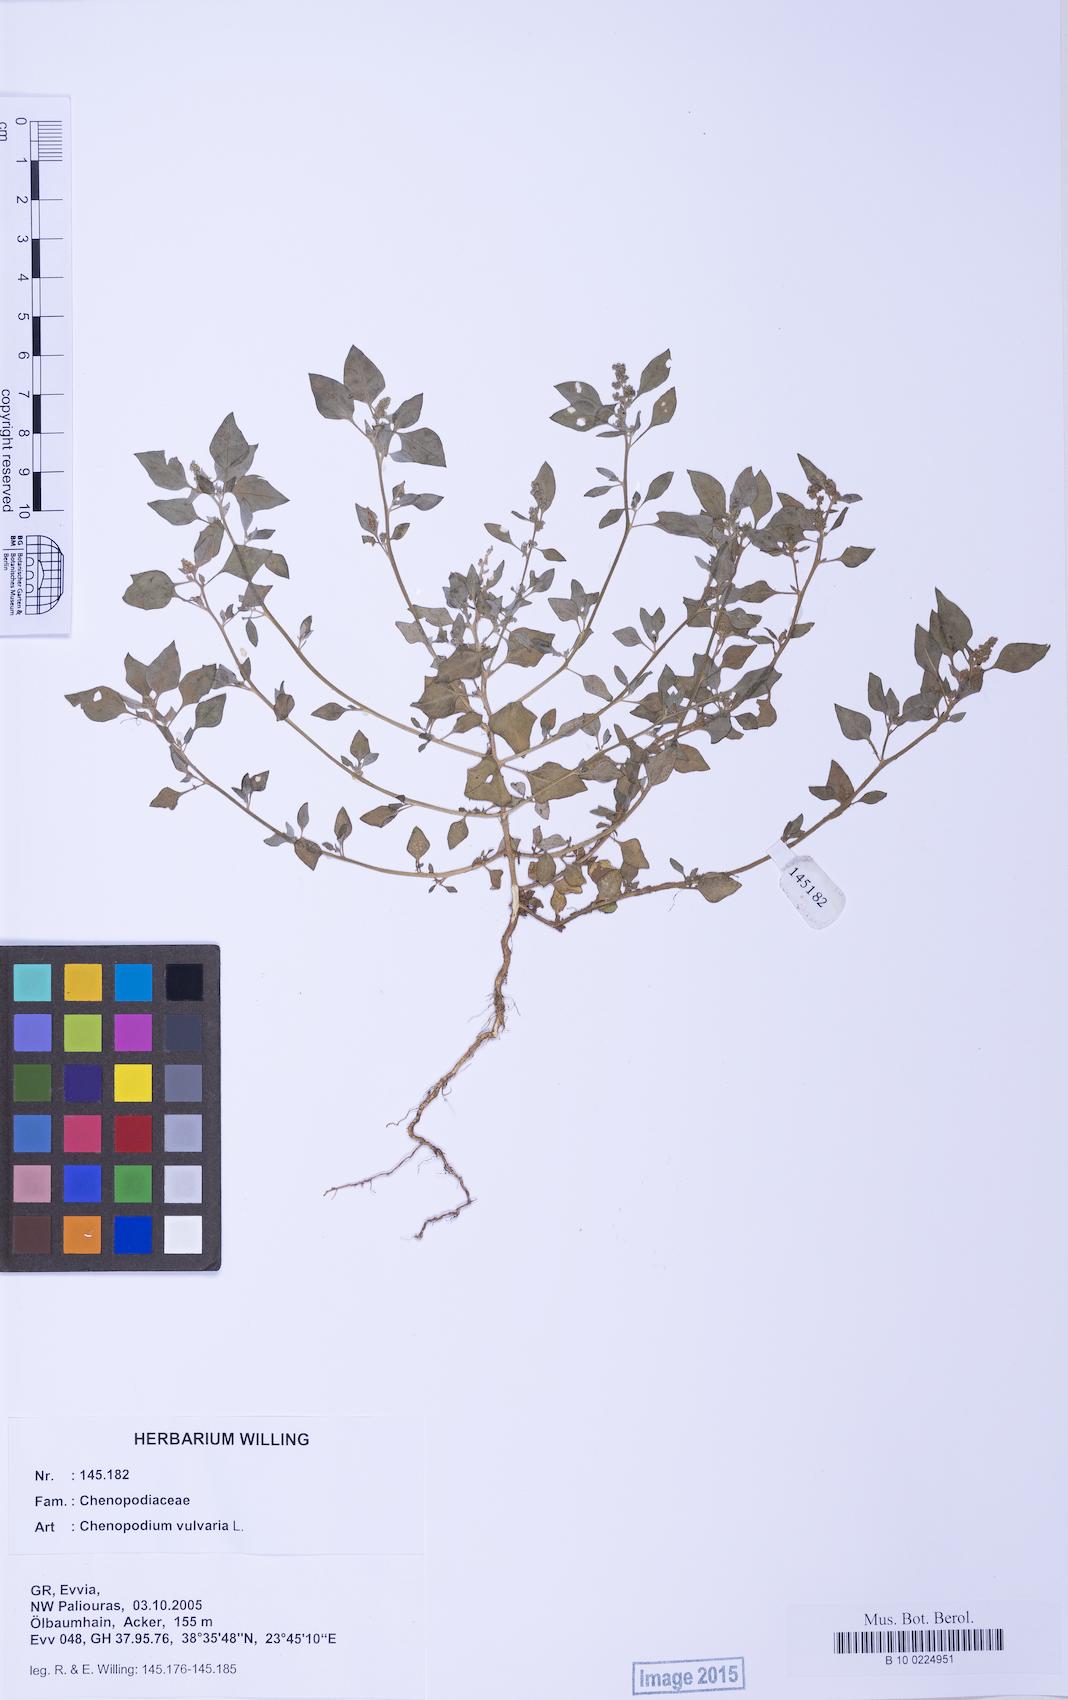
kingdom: Plantae
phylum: Tracheophyta
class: Magnoliopsida
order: Caryophyllales
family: Amaranthaceae
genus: Chenopodium
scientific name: Chenopodium vulvaria
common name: Stinking goosefoot
